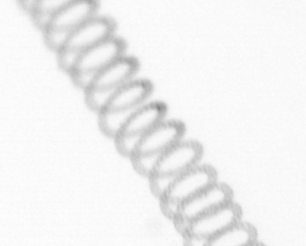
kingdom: Chromista
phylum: Ochrophyta
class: Bacillariophyceae
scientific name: Bacillariophyceae
